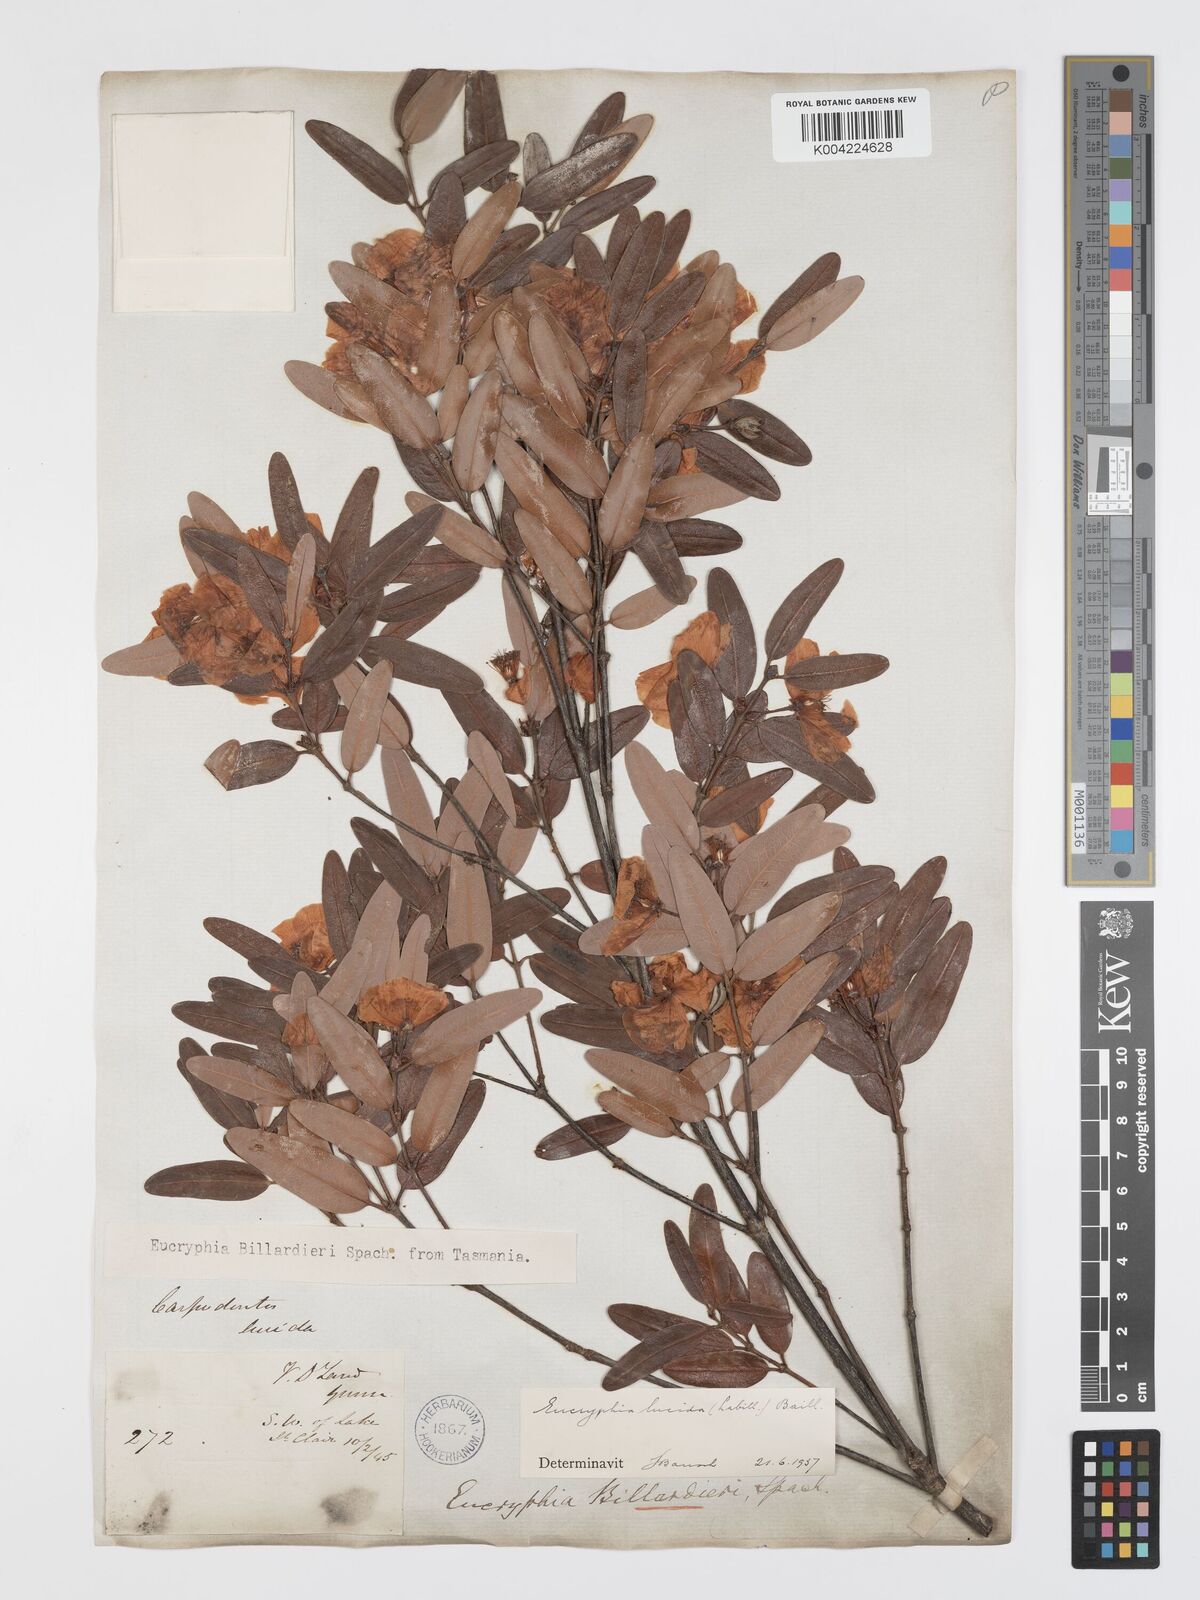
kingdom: Plantae
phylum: Tracheophyta
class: Magnoliopsida
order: Oxalidales
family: Cunoniaceae
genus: Eucryphia
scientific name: Eucryphia lucida
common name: Leatherwood
